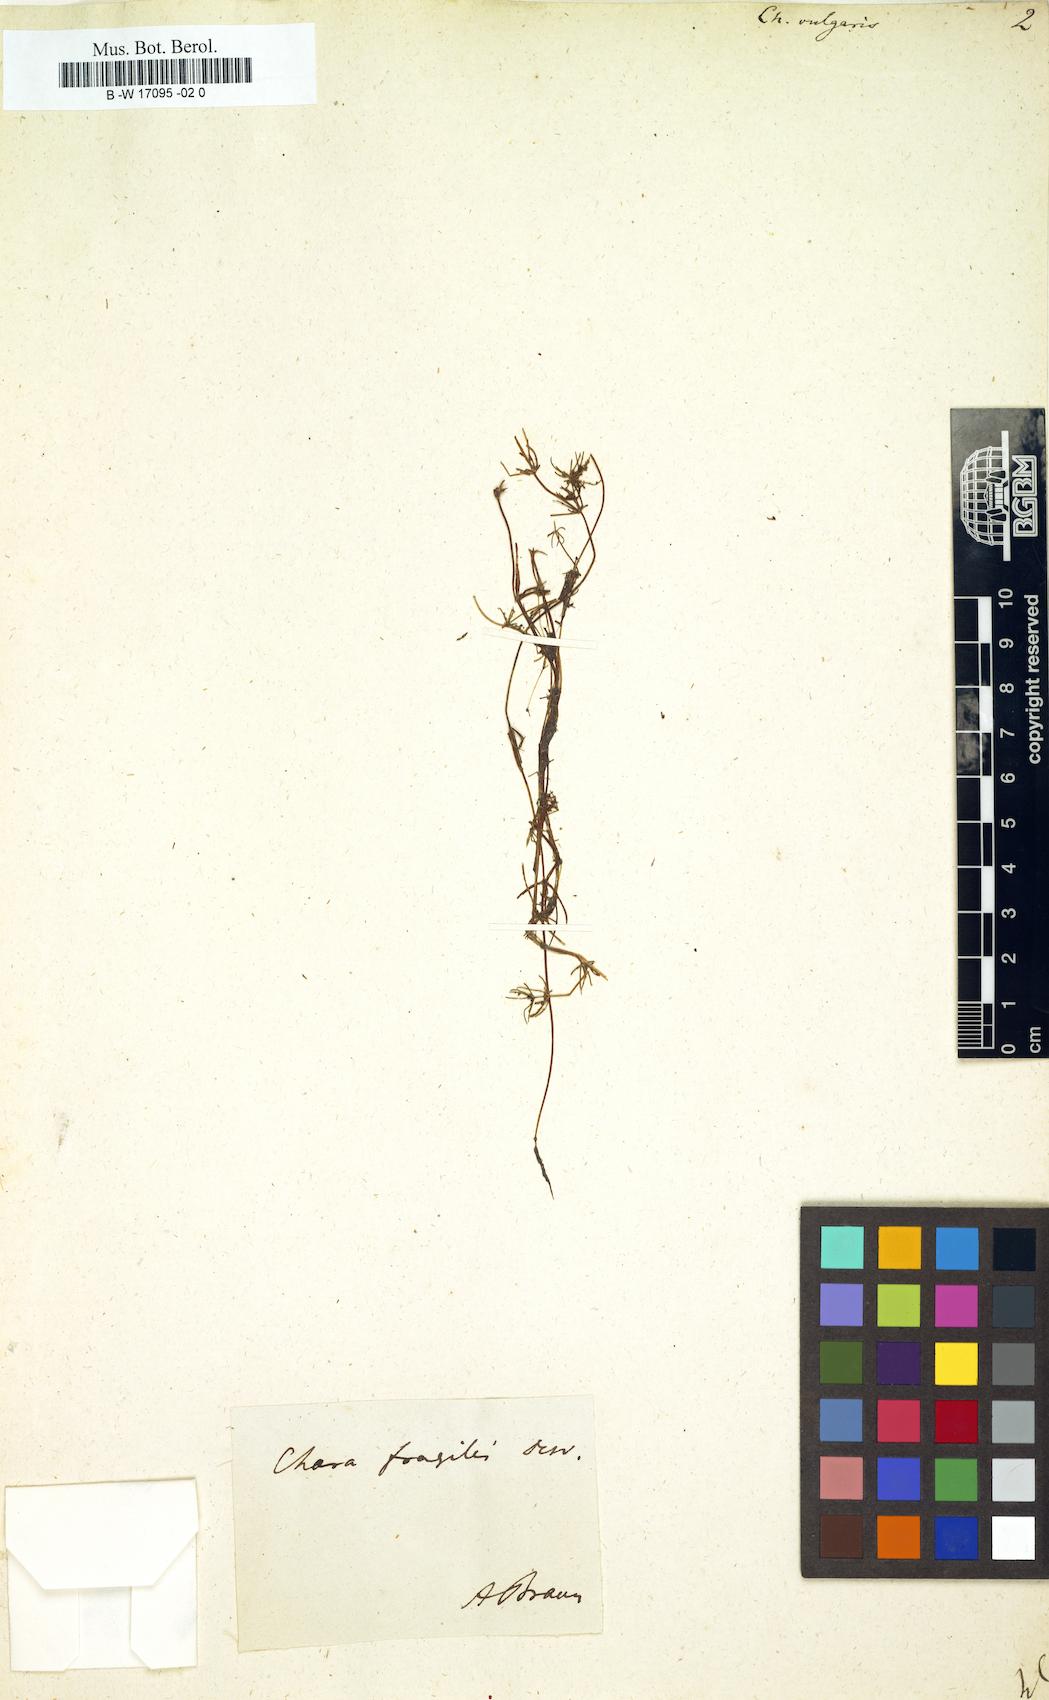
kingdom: Plantae
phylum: Charophyta
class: Charophyceae
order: Charales
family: Characeae
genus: Chara
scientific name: Chara vulgaris
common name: Common stonewort
